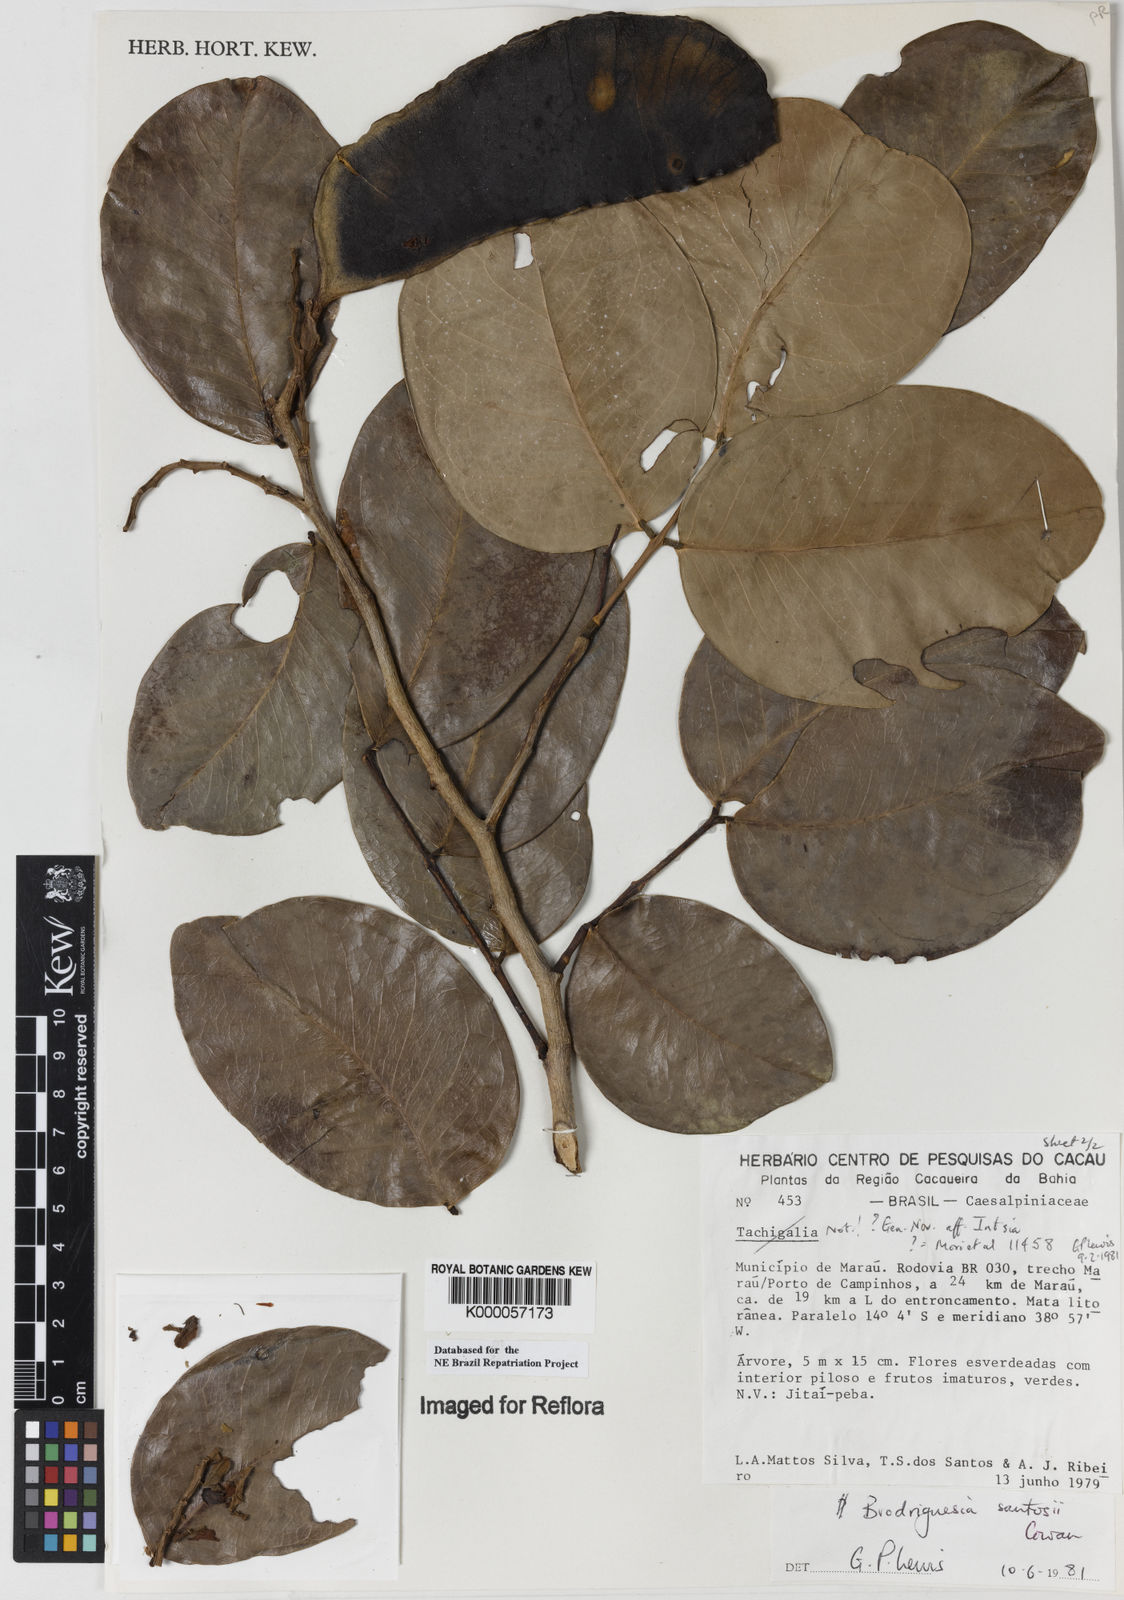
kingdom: Plantae
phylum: Tracheophyta
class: Magnoliopsida
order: Fabales
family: Fabaceae
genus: Brodriguesia
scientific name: Brodriguesia santosii
